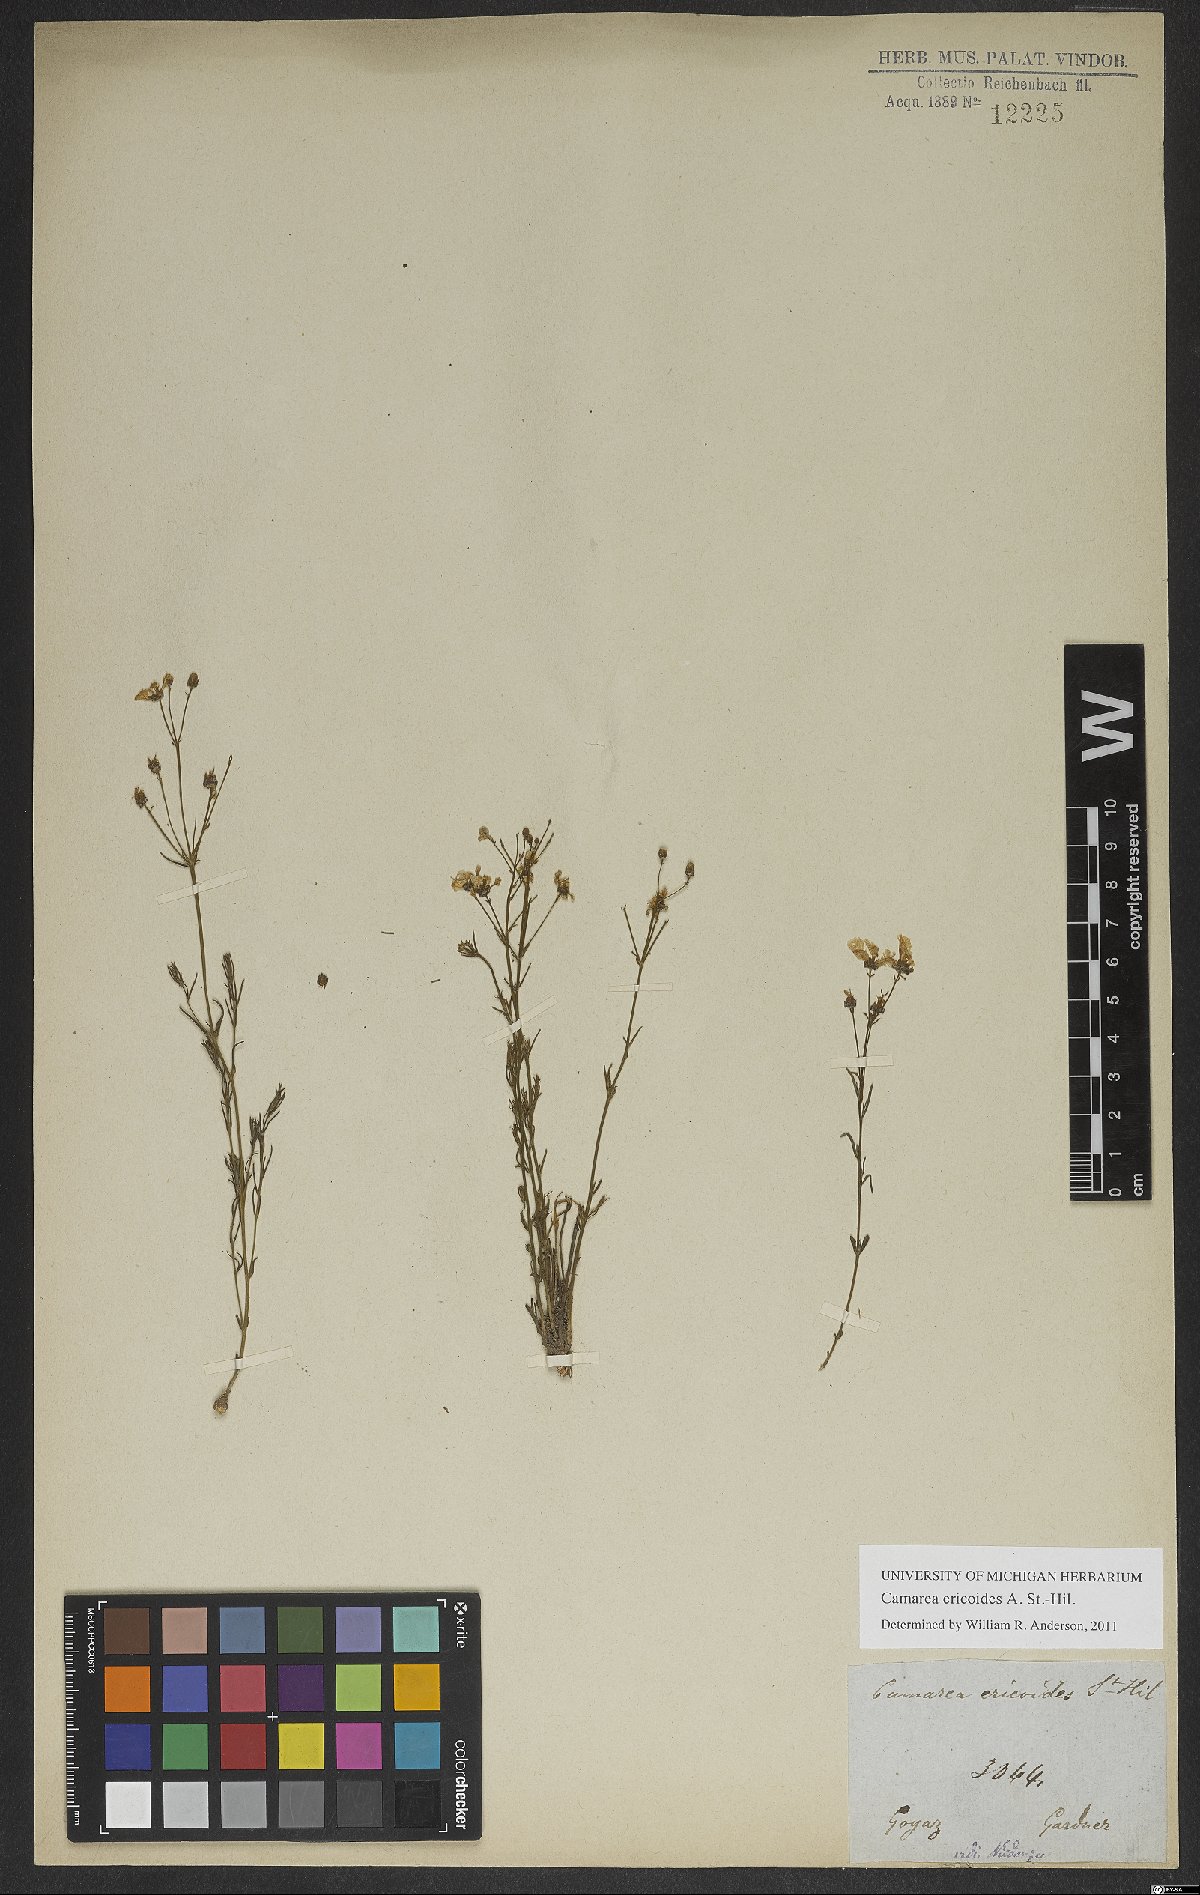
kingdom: Plantae
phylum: Tracheophyta
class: Magnoliopsida
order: Malpighiales
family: Malpighiaceae
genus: Camarea
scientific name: Camarea ericoides
